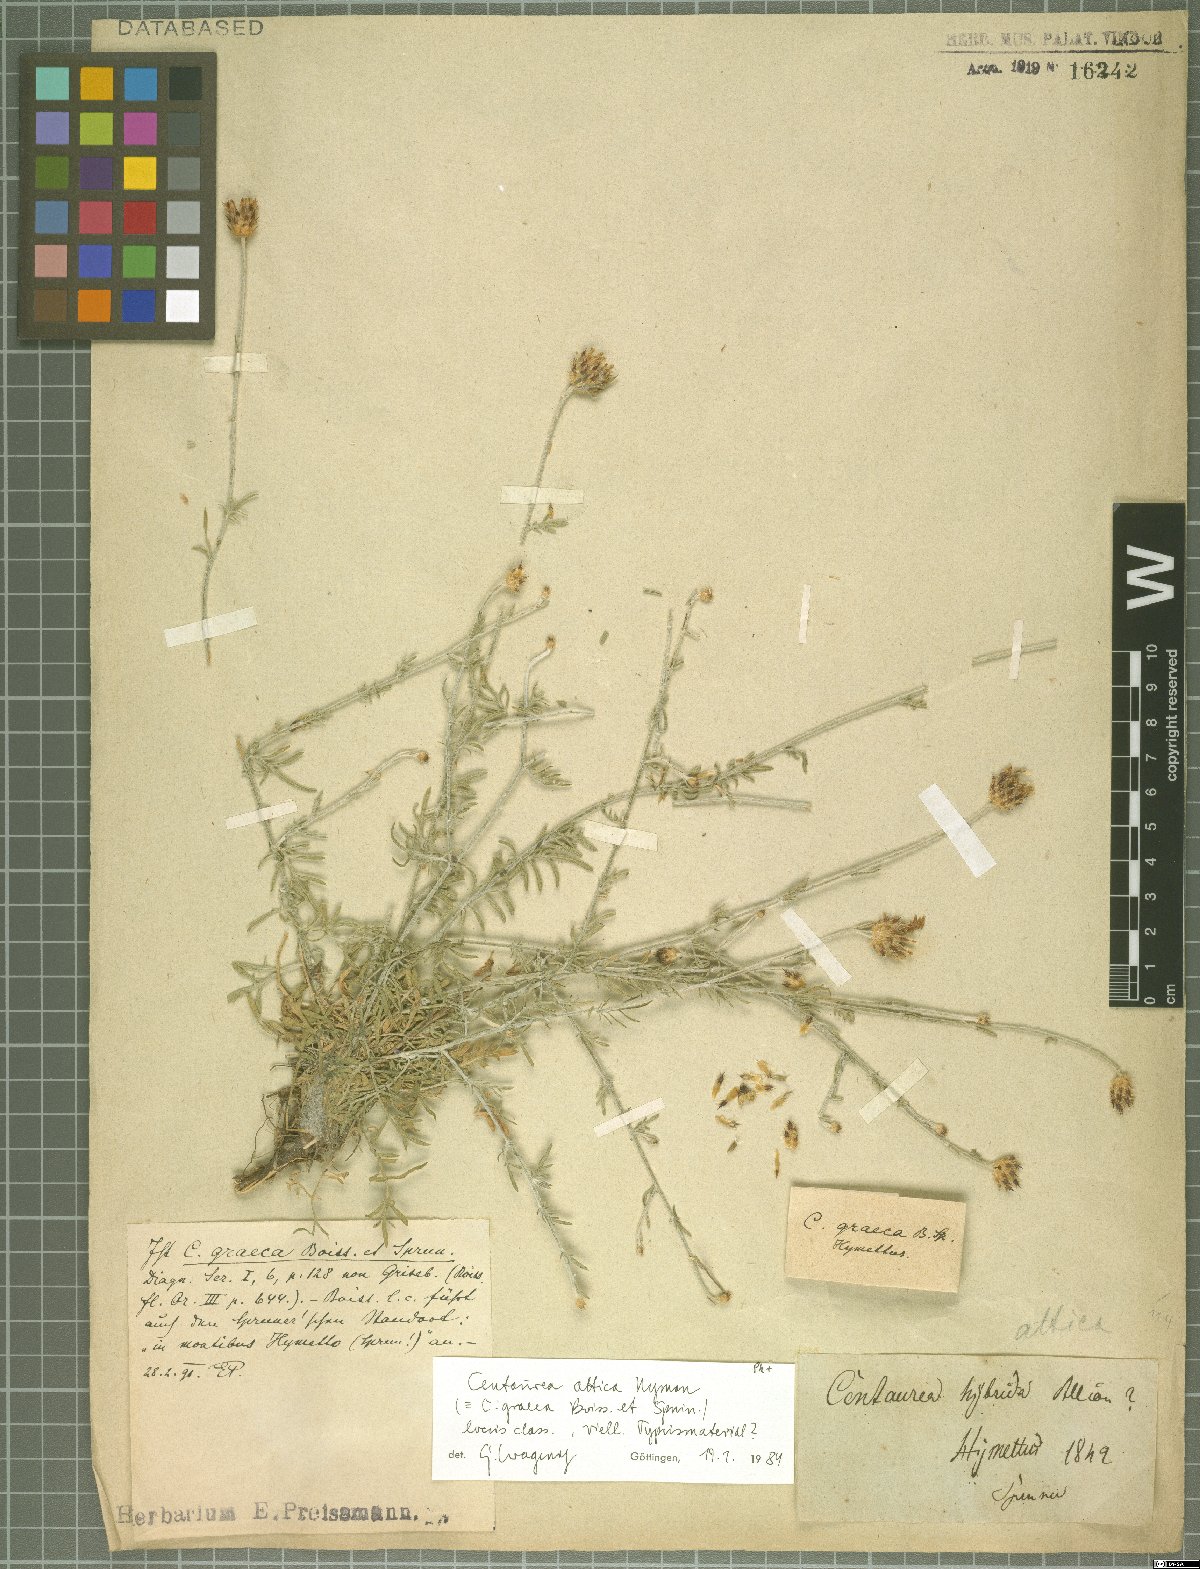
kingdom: Plantae
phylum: Tracheophyta
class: Magnoliopsida
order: Asterales
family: Asteraceae
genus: Centaurea
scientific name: Centaurea attica
